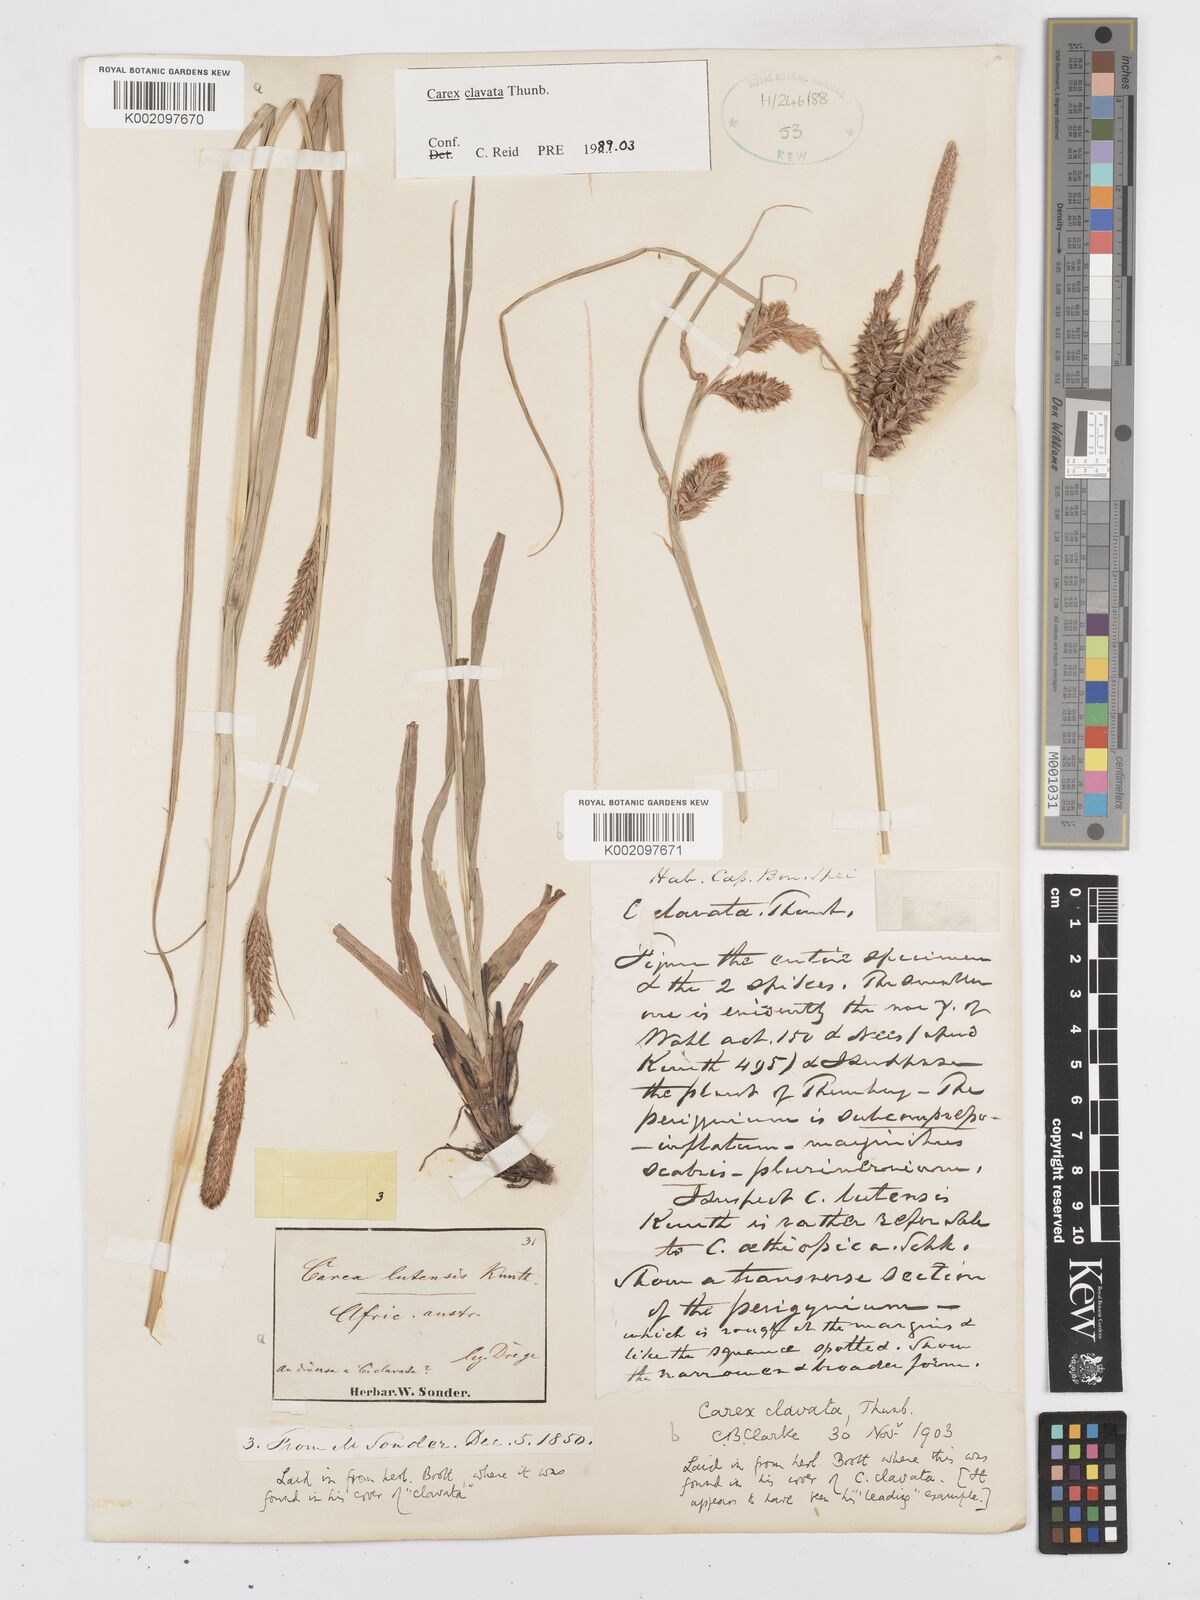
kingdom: Plantae
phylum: Tracheophyta
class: Liliopsida
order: Poales
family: Cyperaceae
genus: Carex
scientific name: Carex clavata
